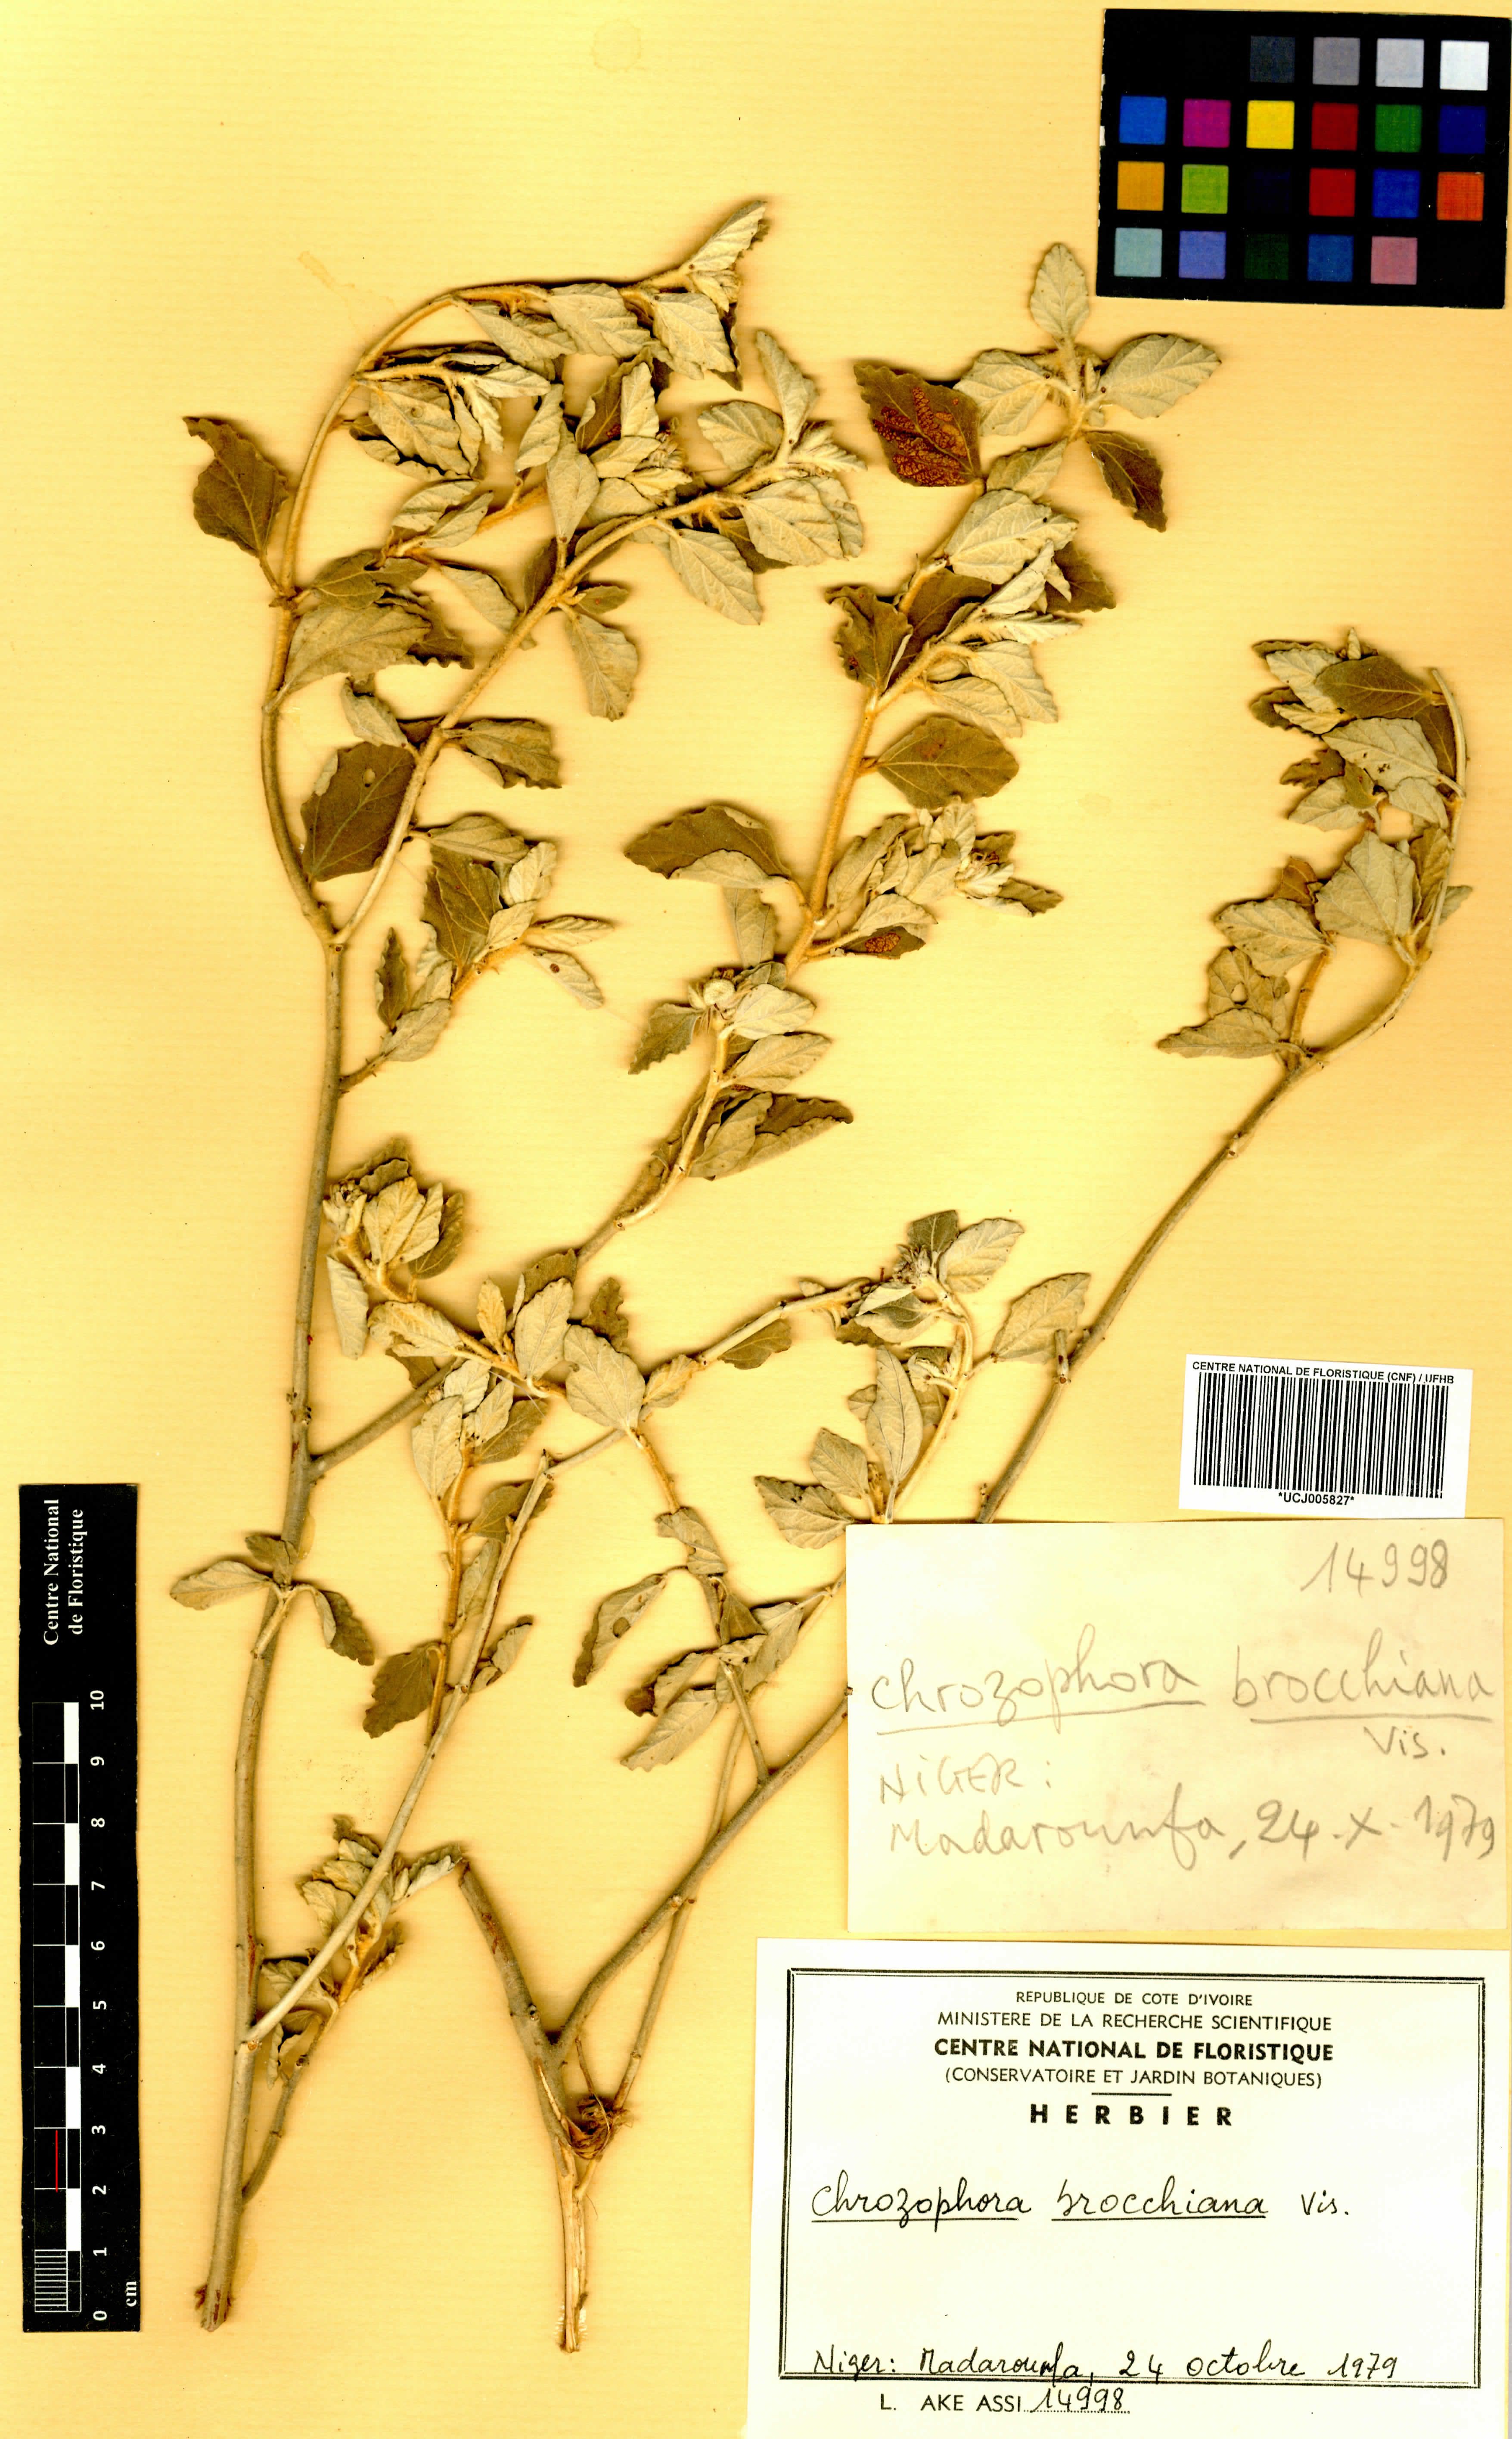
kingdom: Plantae
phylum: Tracheophyta
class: Magnoliopsida
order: Malpighiales
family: Euphorbiaceae
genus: Chrozophora
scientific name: Chrozophora brocchiana
